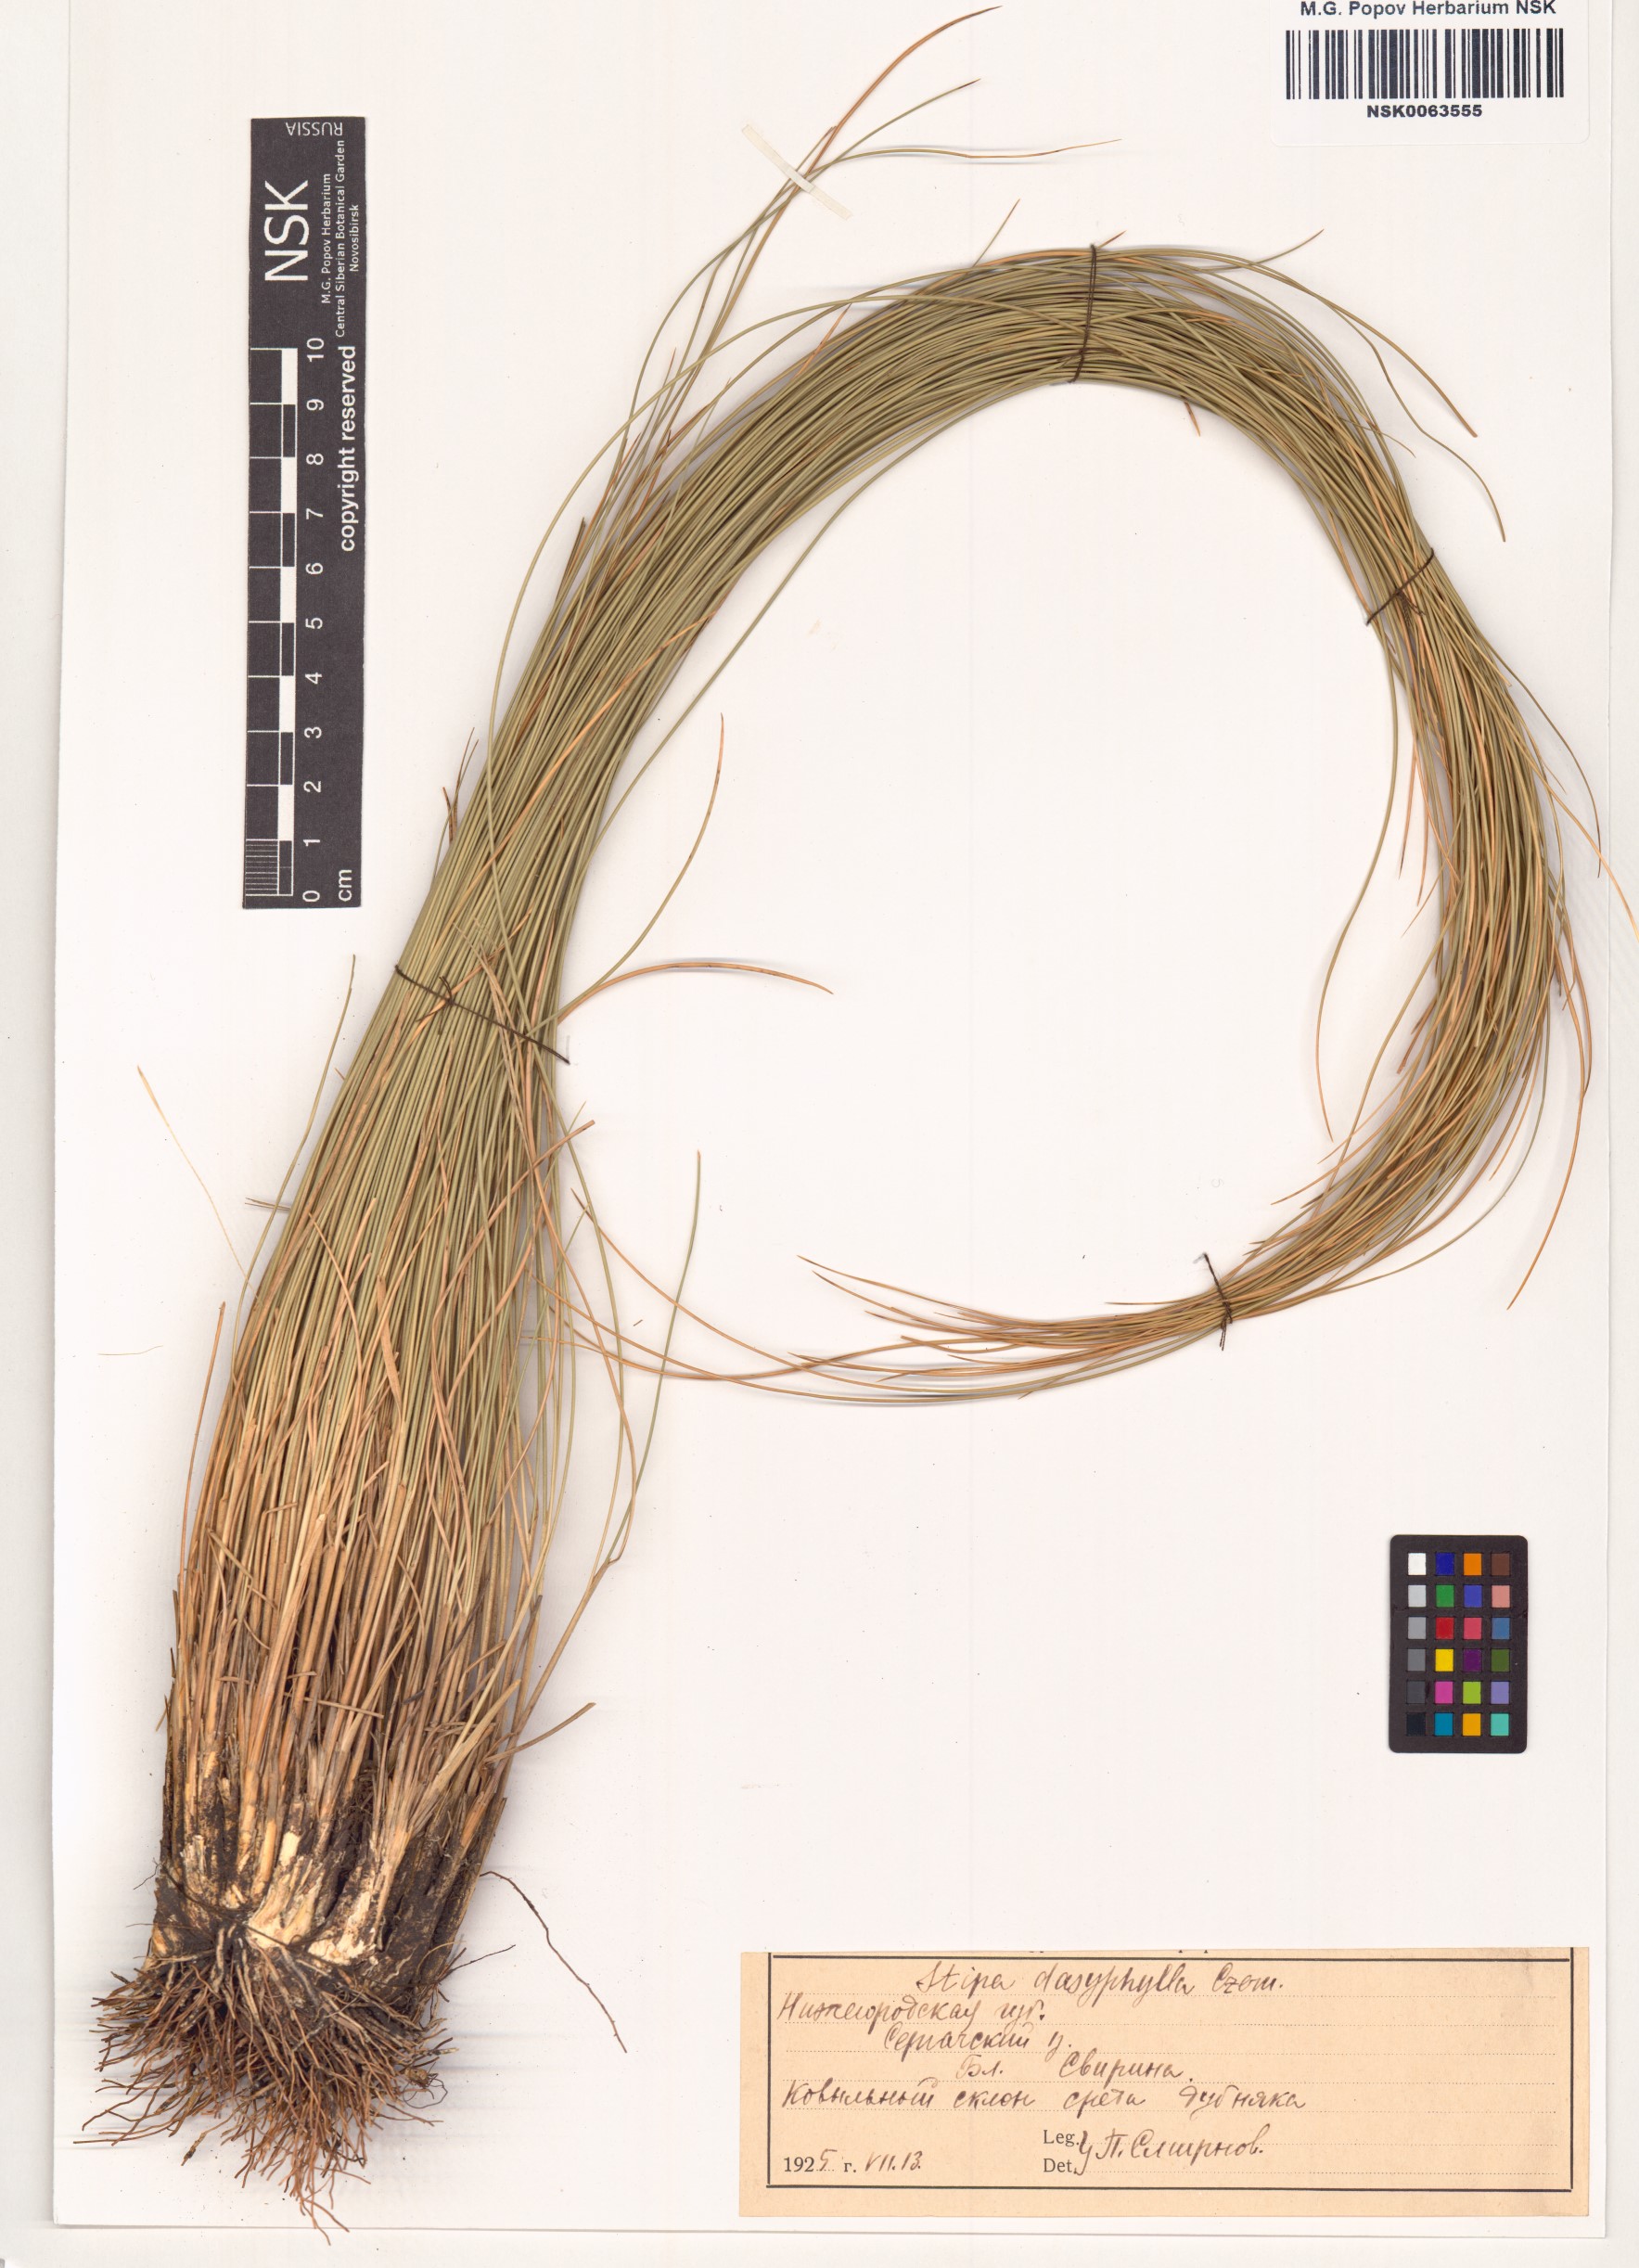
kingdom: Plantae
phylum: Tracheophyta
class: Liliopsida
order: Poales
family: Poaceae
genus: Stipa
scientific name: Stipa dasyphylla
